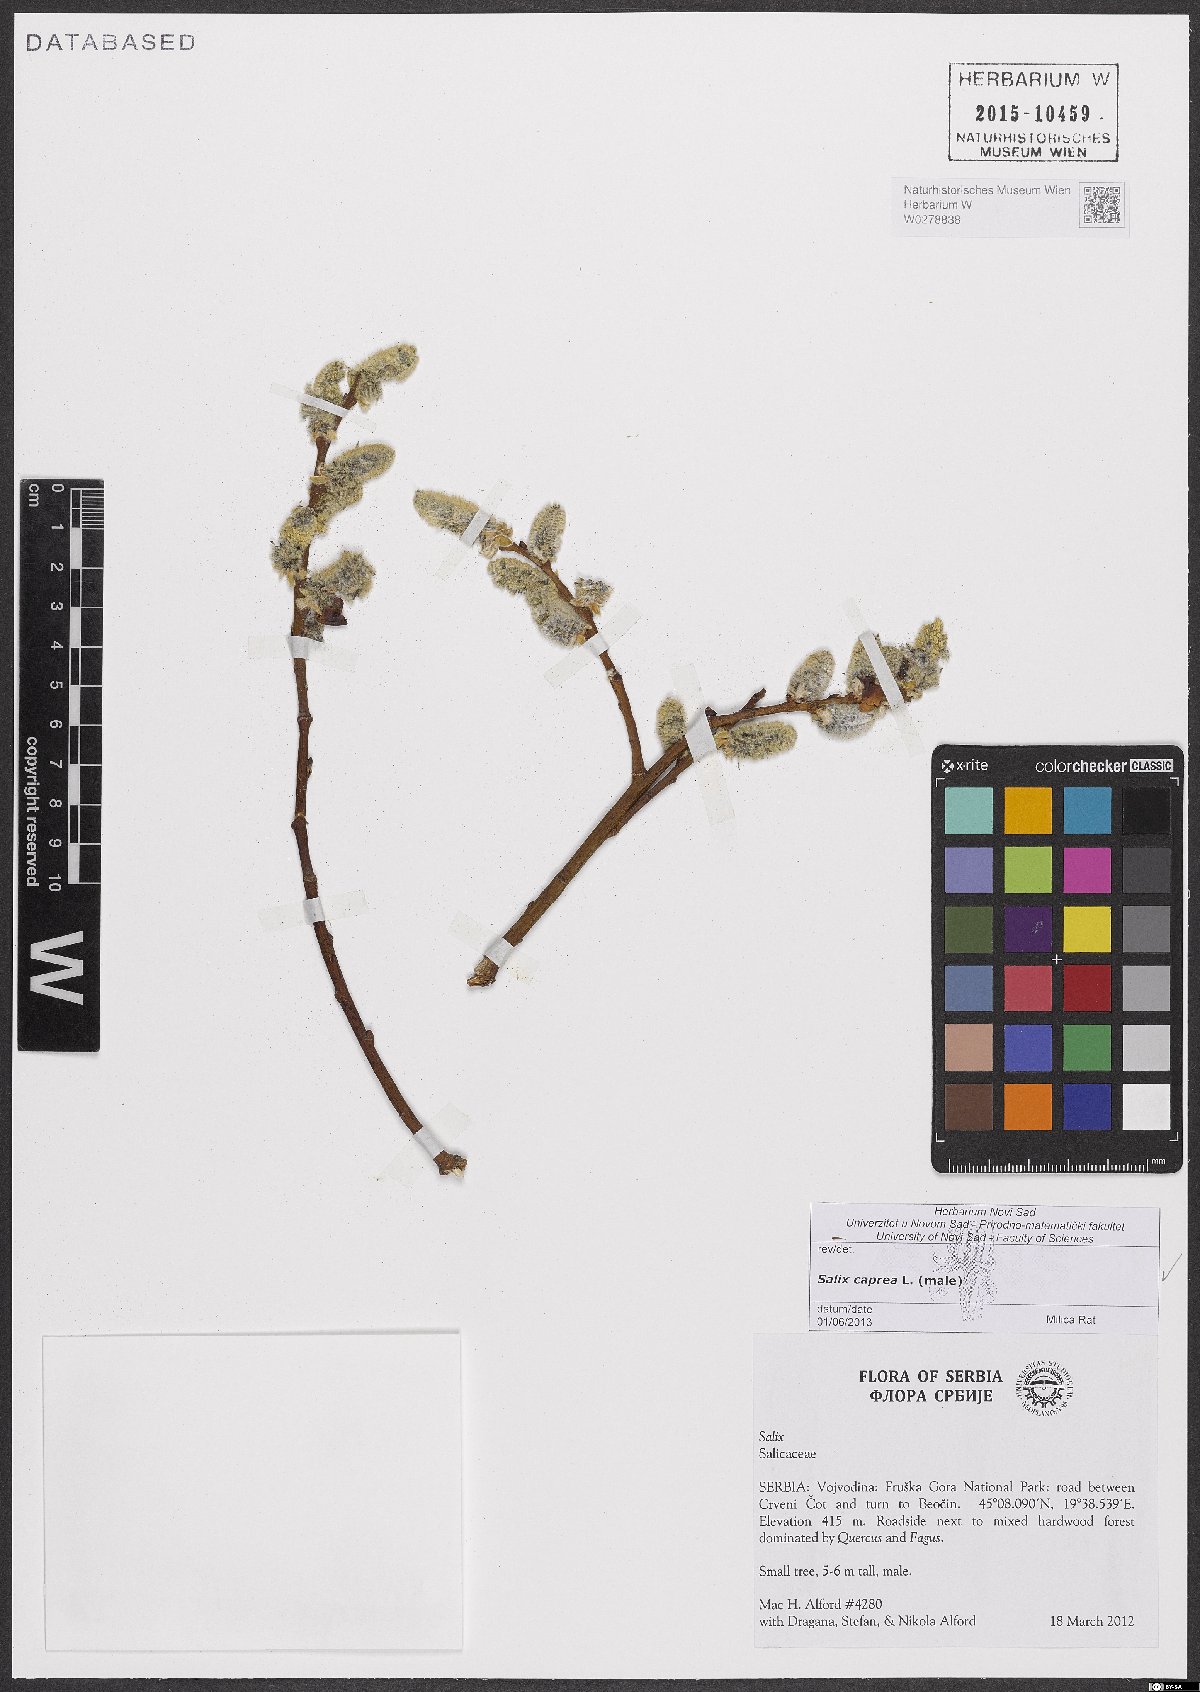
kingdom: Plantae
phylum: Tracheophyta
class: Magnoliopsida
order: Malpighiales
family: Salicaceae
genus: Salix
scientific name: Salix caprea
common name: Goat willow
